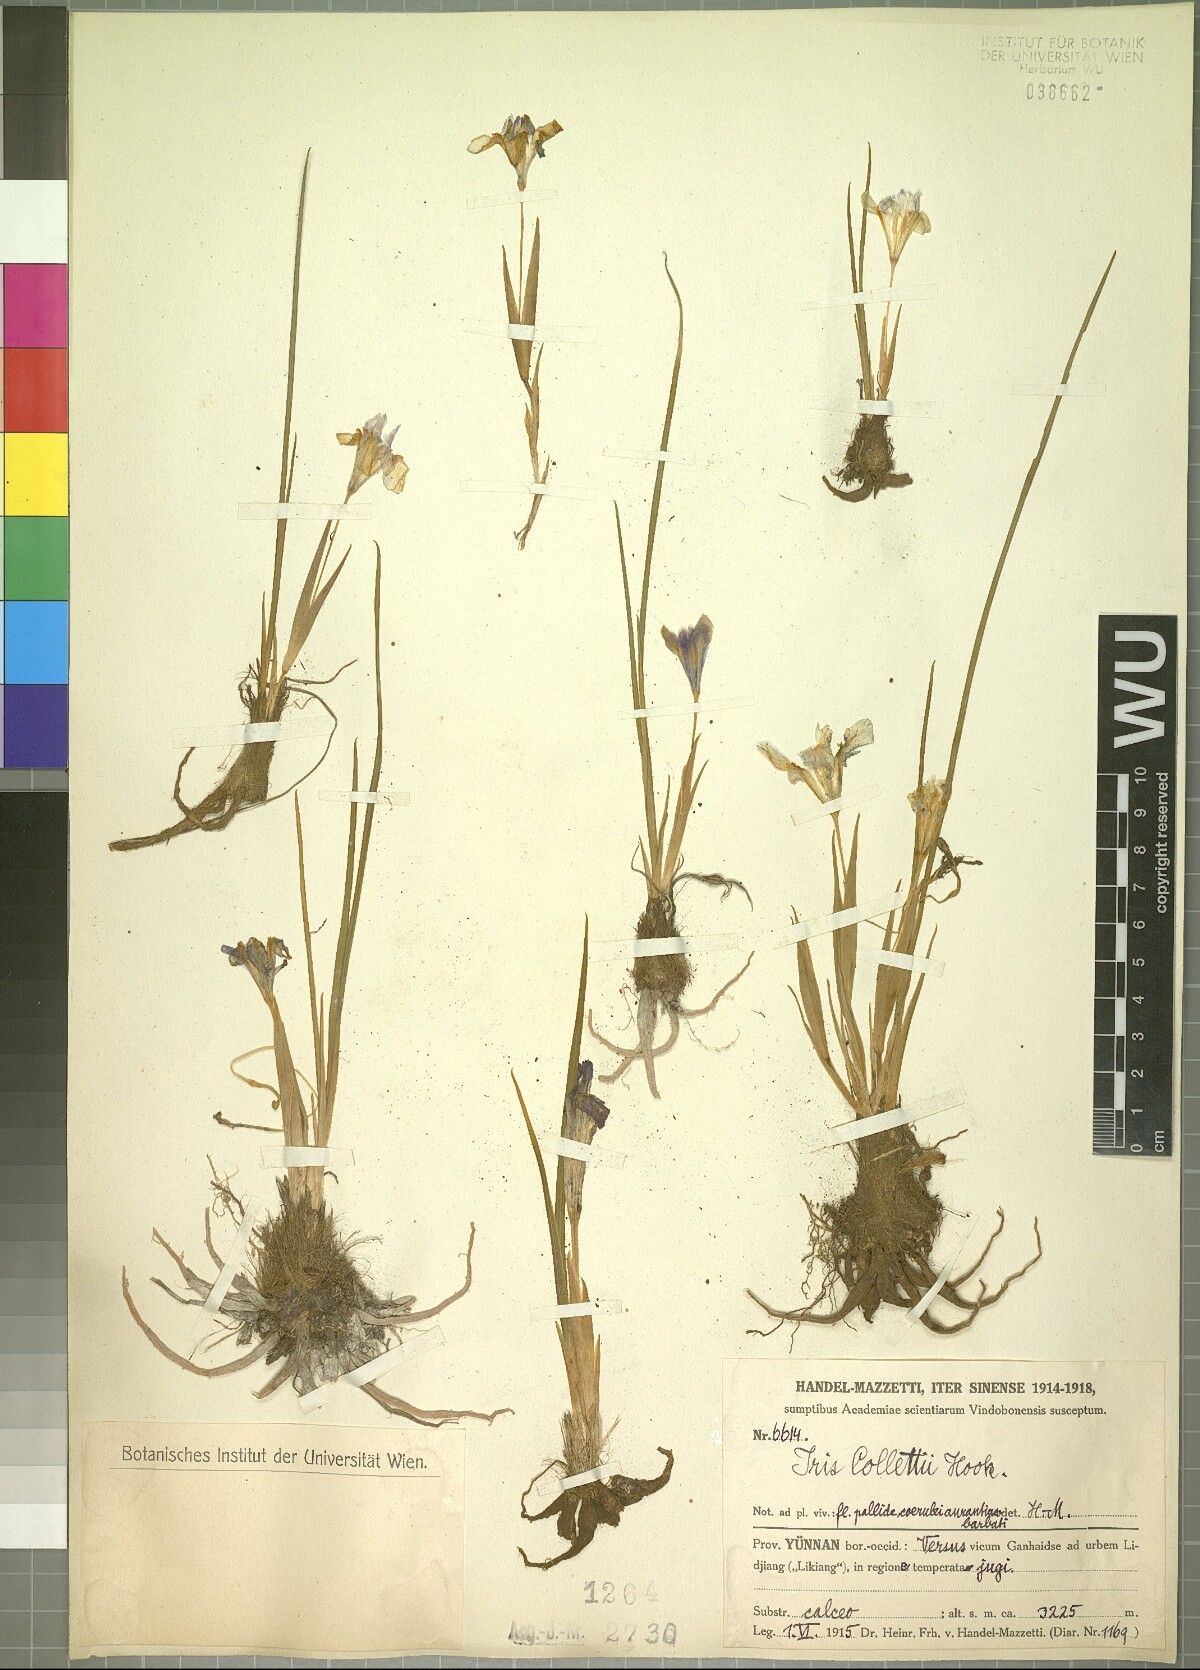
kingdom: Plantae
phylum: Tracheophyta
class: Liliopsida
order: Asparagales
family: Iridaceae
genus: Iris
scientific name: Iris collettii
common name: Plateau iris
